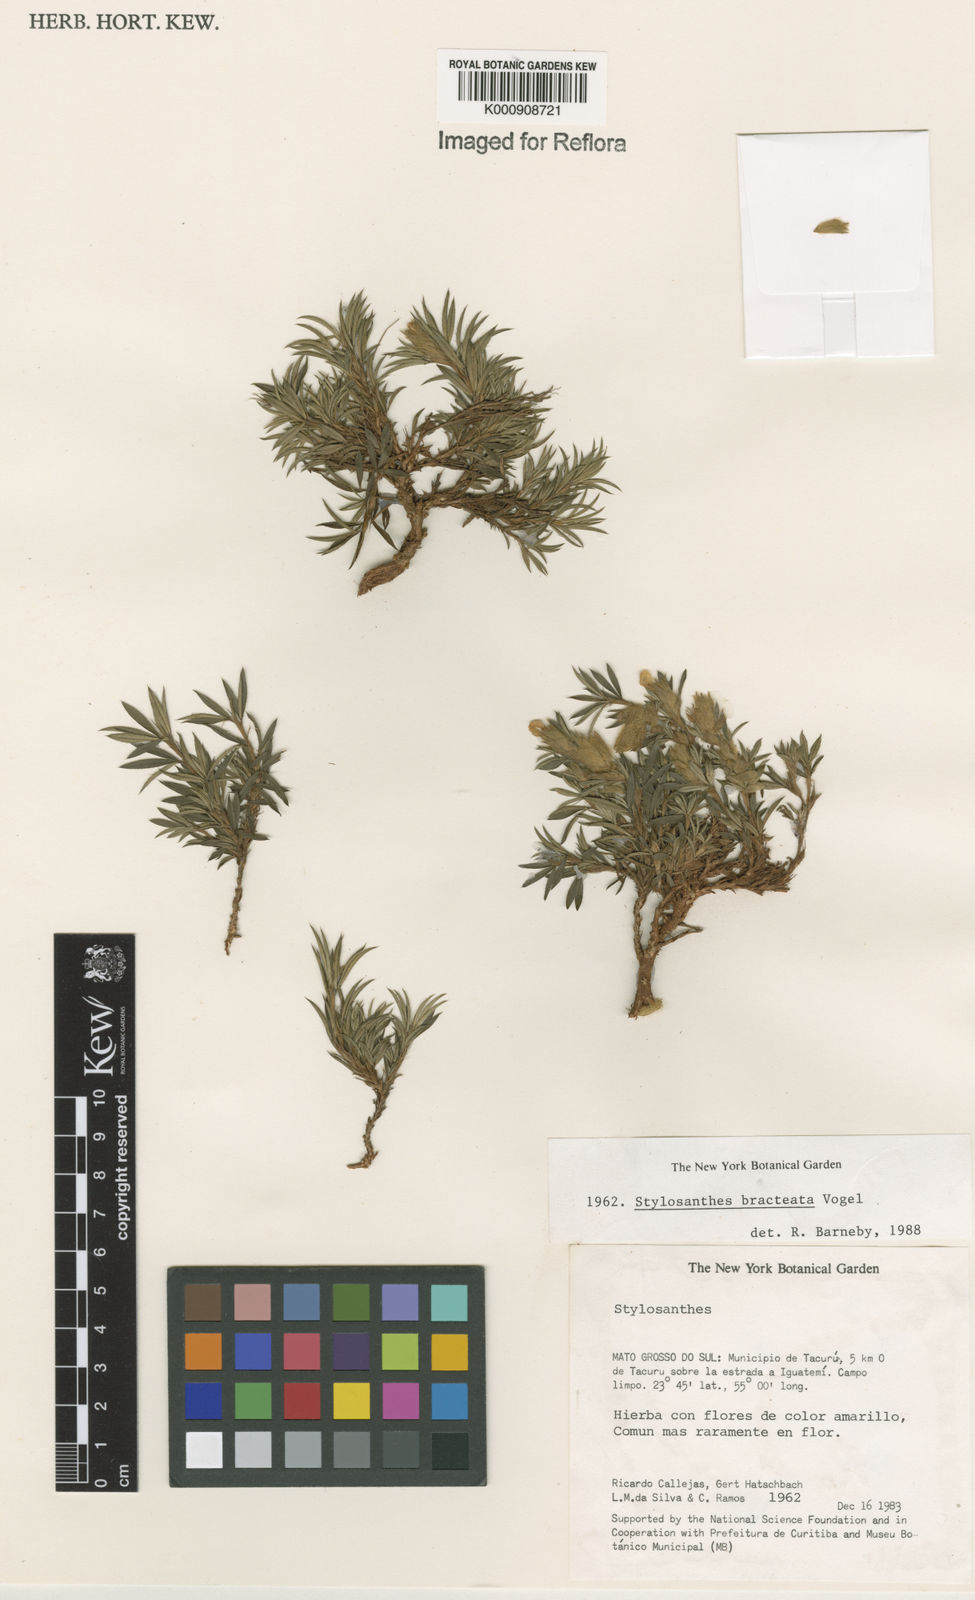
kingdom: Plantae
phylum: Tracheophyta
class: Magnoliopsida
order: Fabales
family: Fabaceae
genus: Stylosanthes
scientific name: Stylosanthes bracteata
